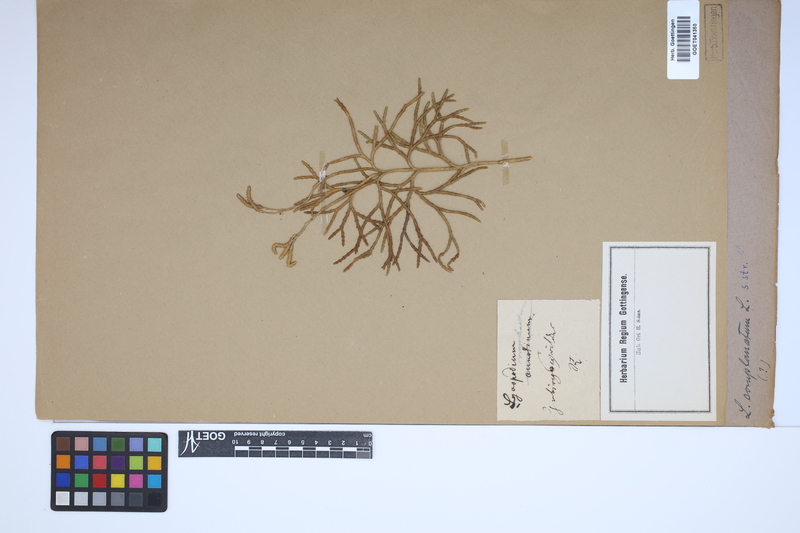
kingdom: Plantae
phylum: Tracheophyta
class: Lycopodiopsida
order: Lycopodiales
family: Lycopodiaceae
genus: Diphasiastrum
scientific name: Diphasiastrum complanatum
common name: Northern running-pine
